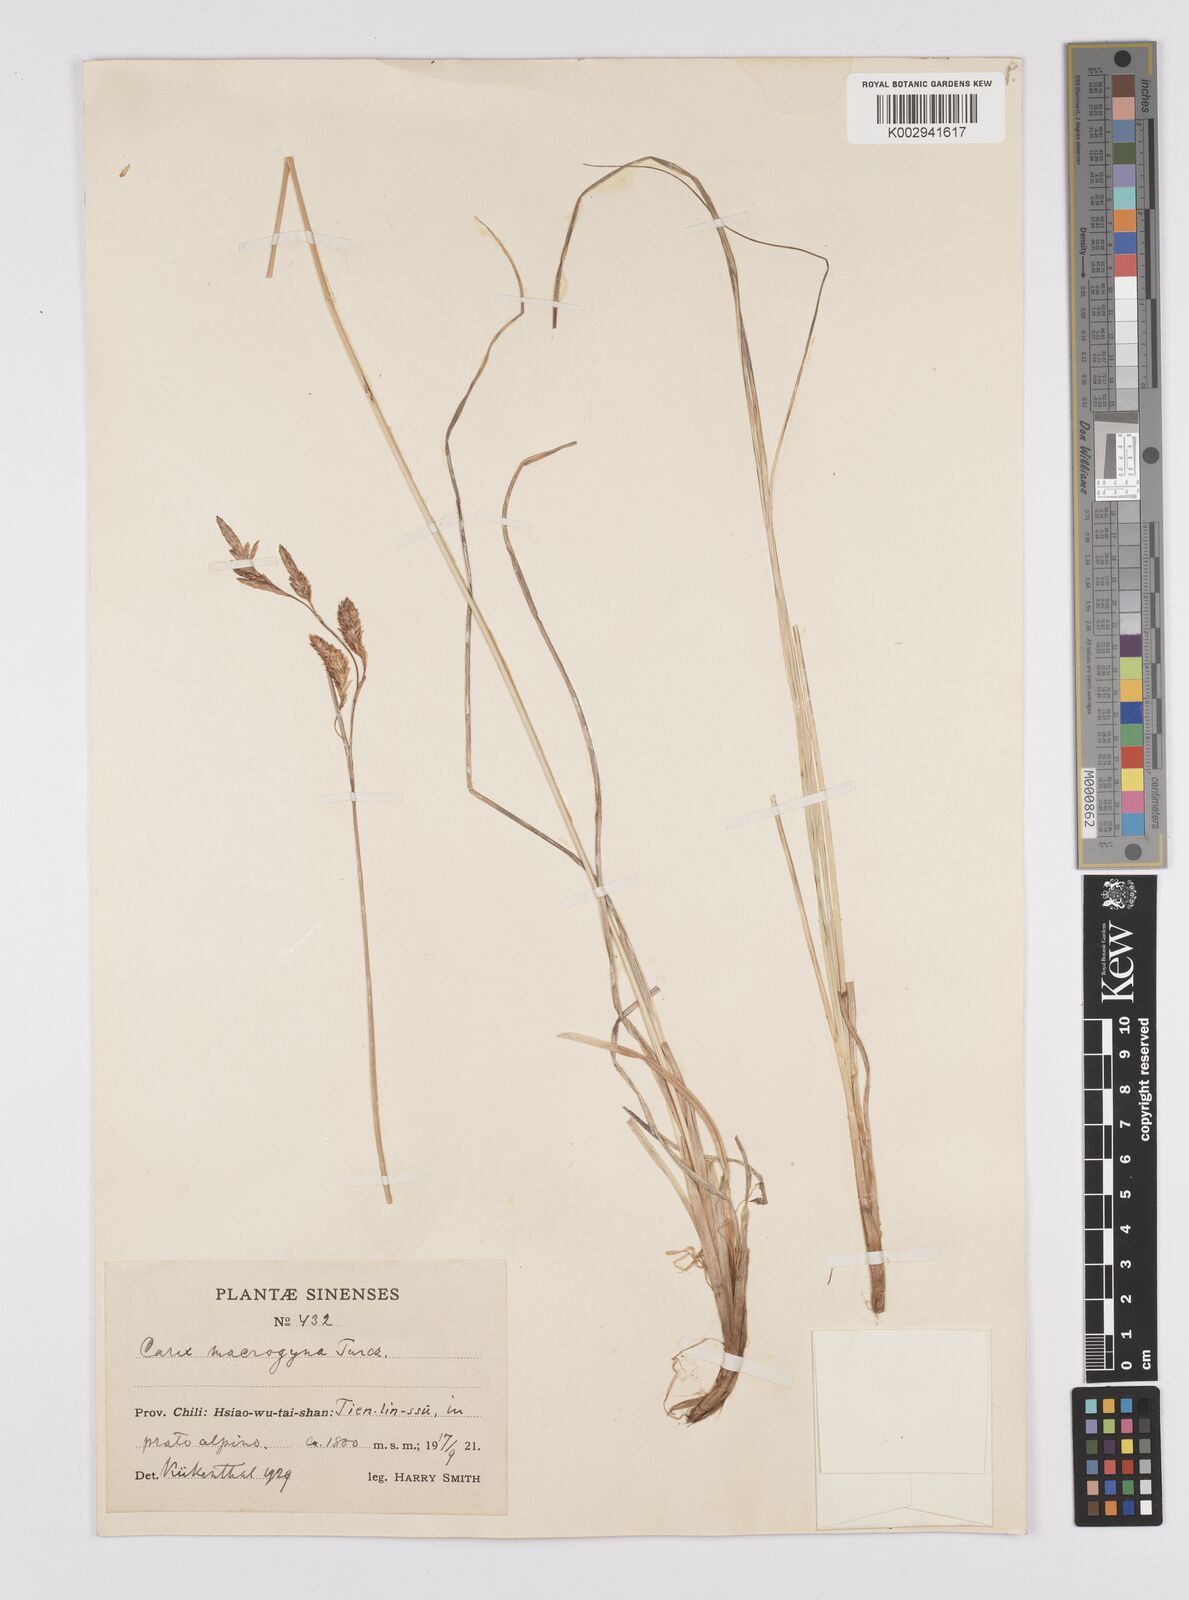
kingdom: Plantae
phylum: Tracheophyta
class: Liliopsida
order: Poales
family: Cyperaceae
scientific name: Cyperaceae
